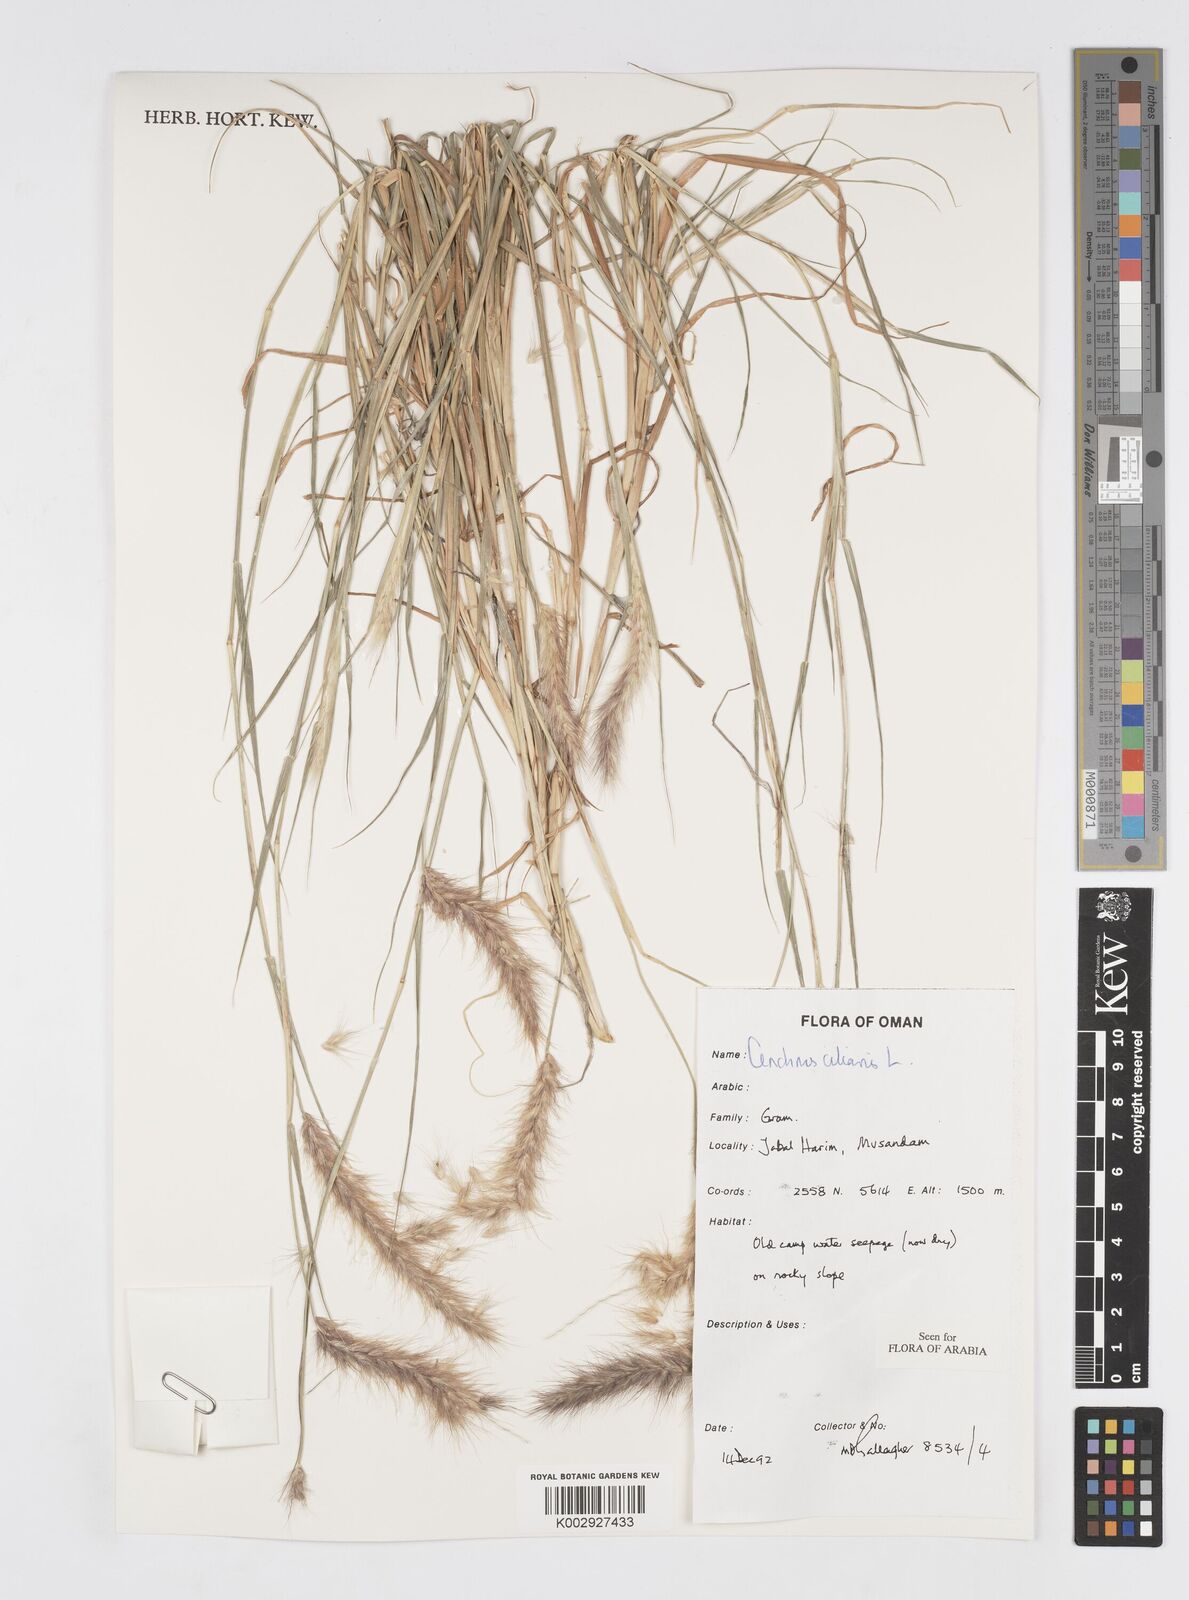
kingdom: Plantae
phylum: Tracheophyta
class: Liliopsida
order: Poales
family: Poaceae
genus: Cenchrus
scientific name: Cenchrus ciliaris
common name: Buffelgrass
